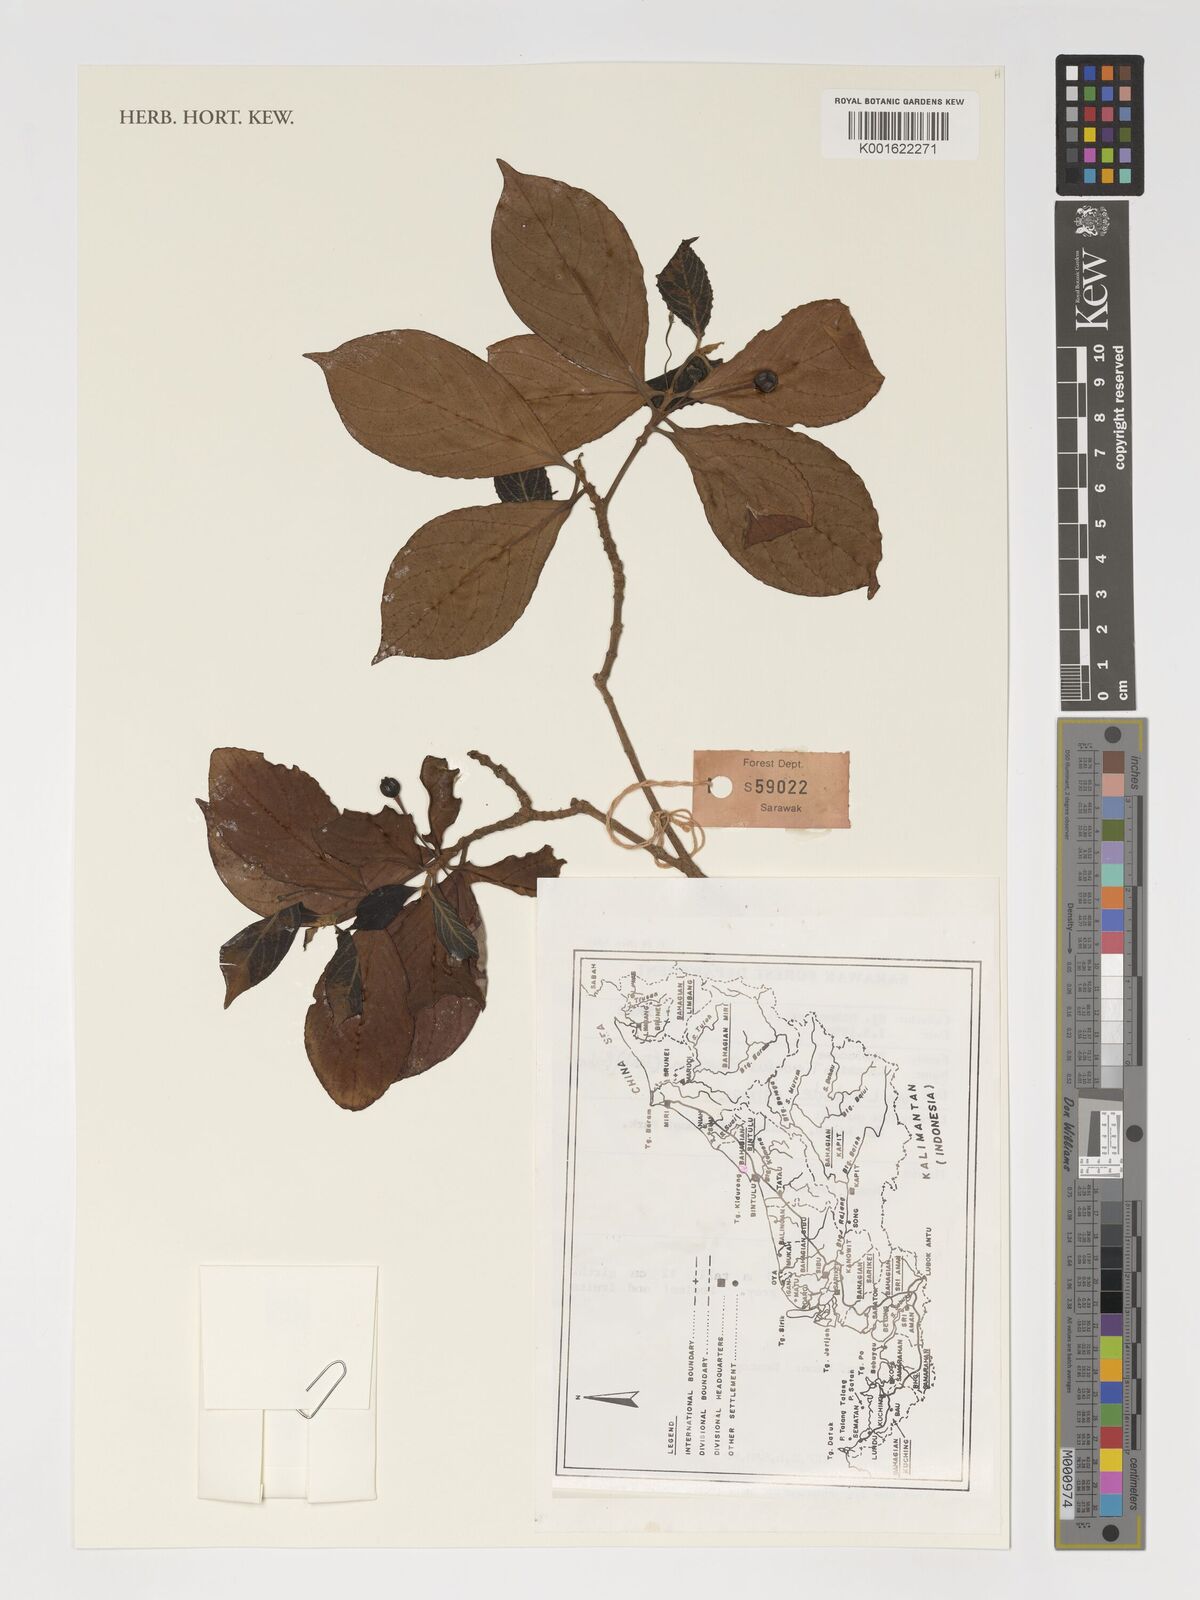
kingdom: Plantae
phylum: Tracheophyta
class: Magnoliopsida
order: Gentianales
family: Rubiaceae
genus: Timonius
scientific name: Timonius flavescens
